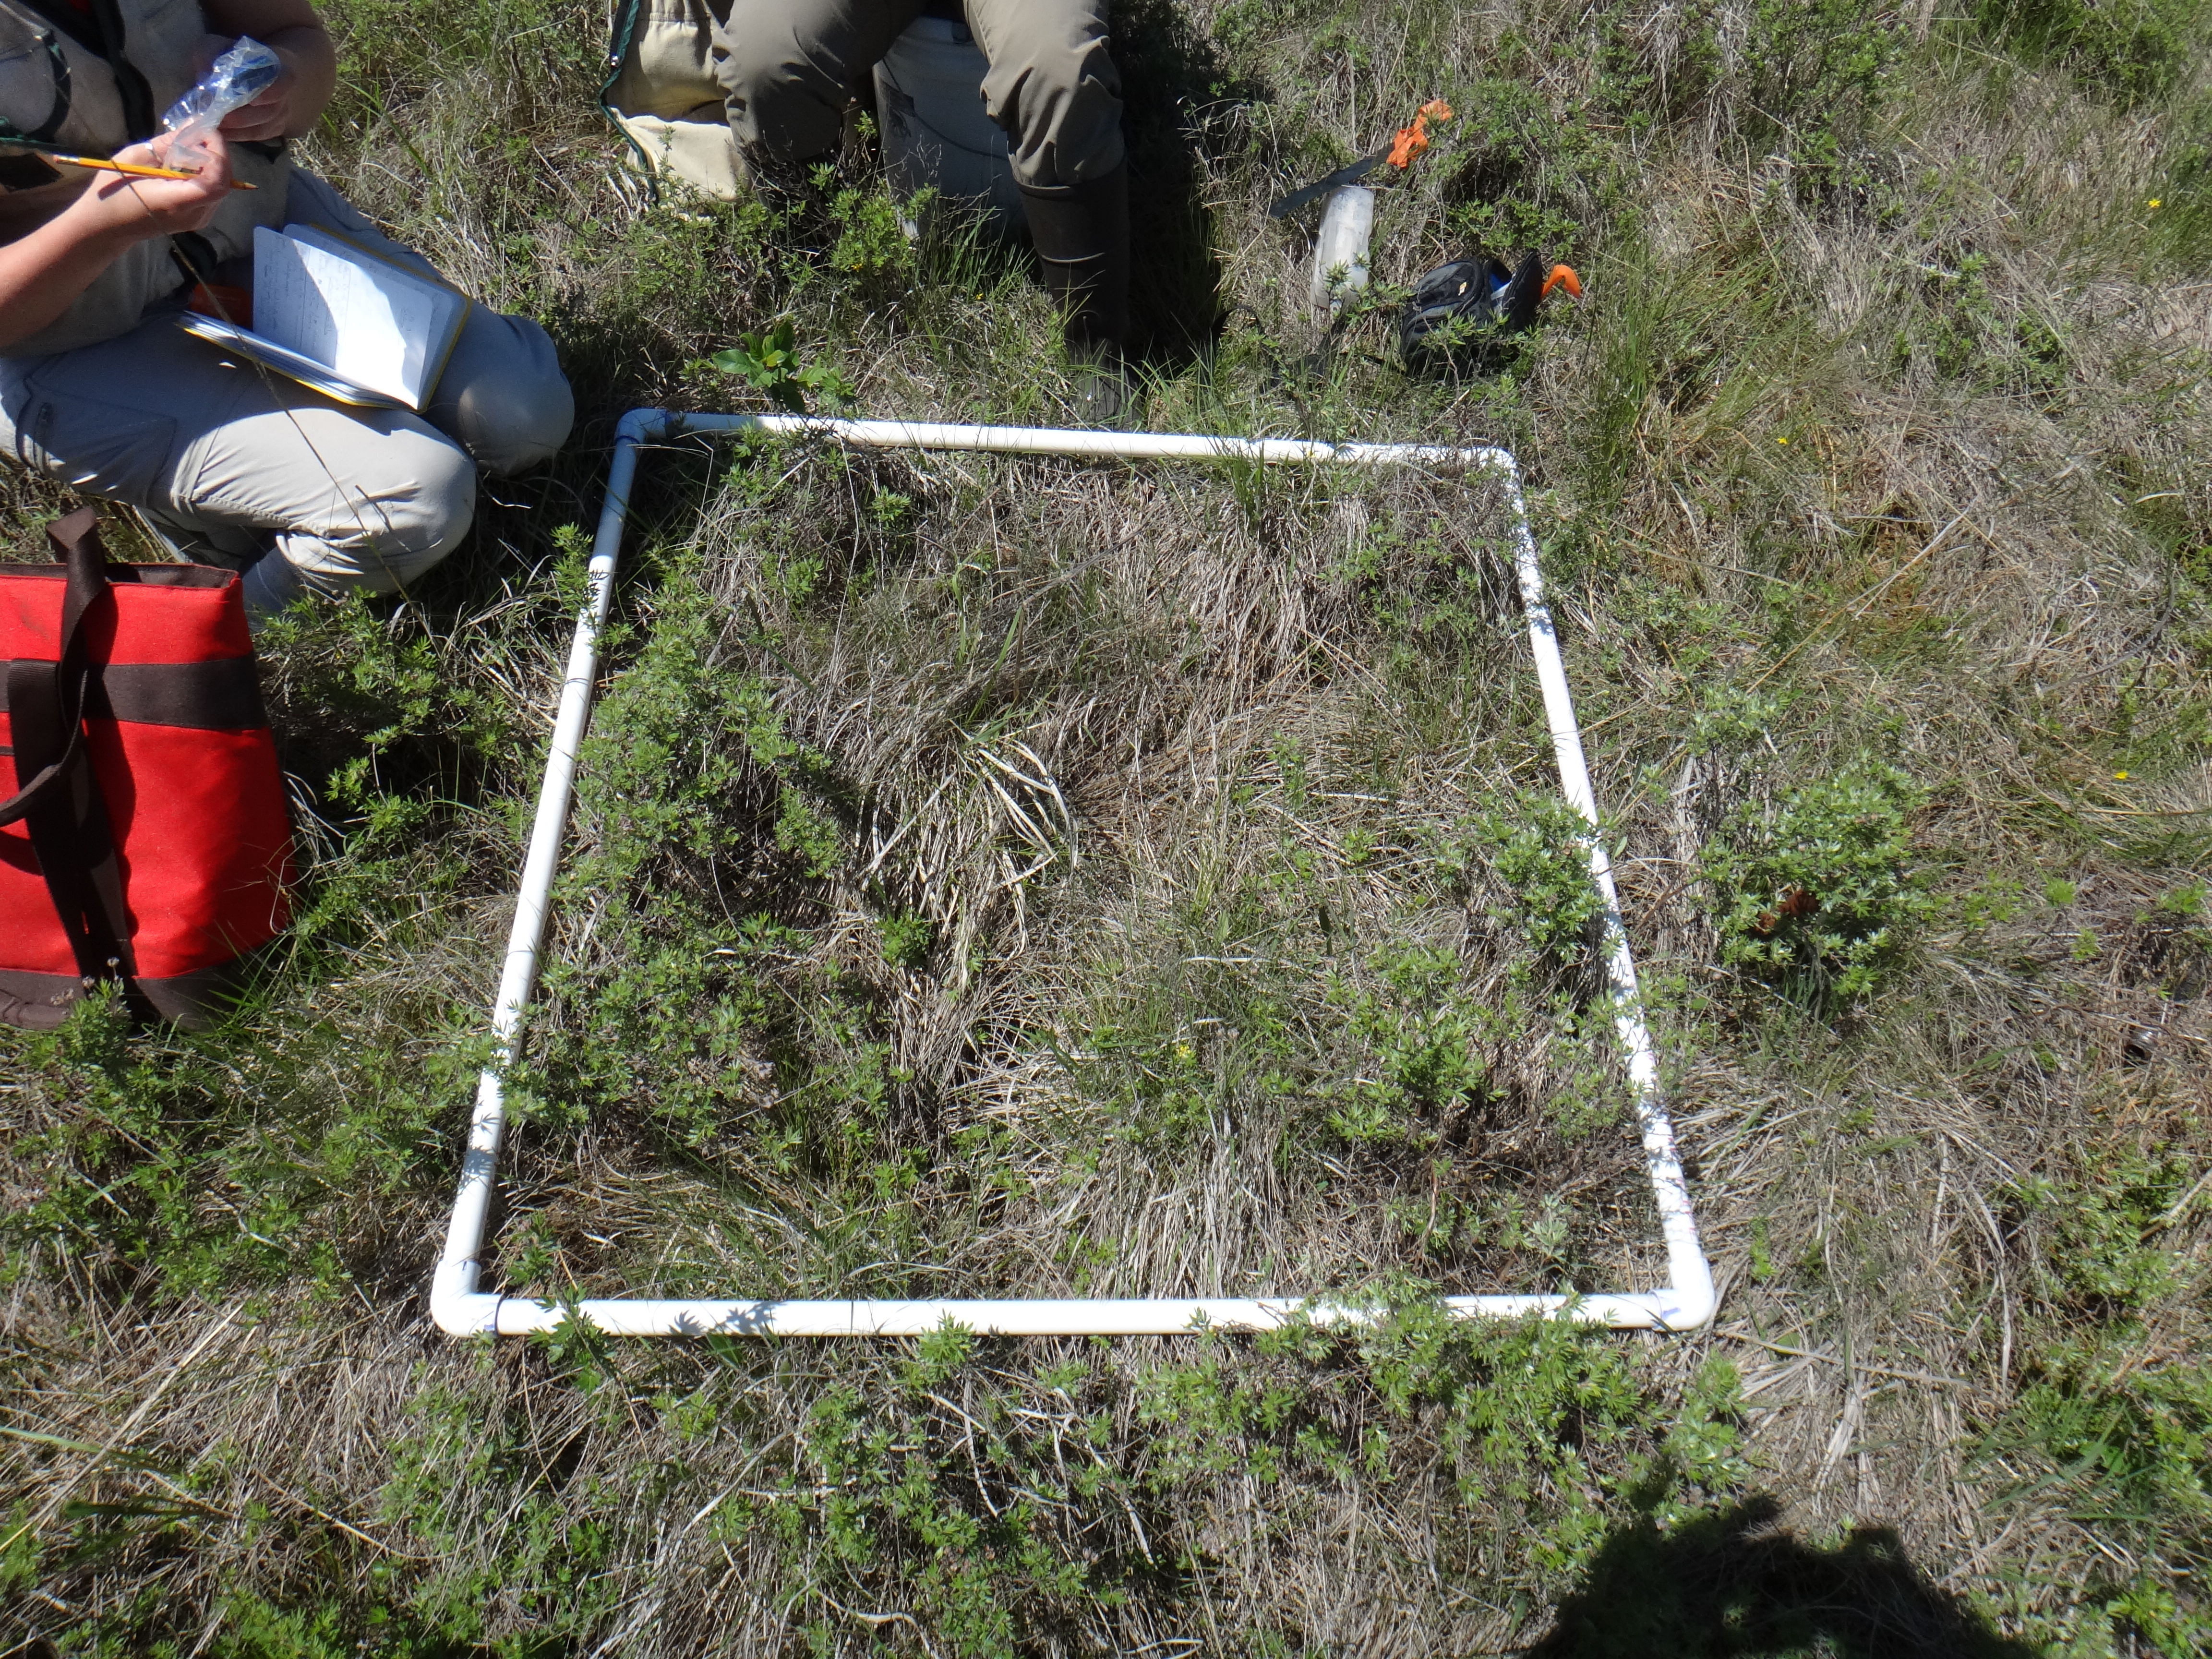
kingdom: Plantae
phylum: Tracheophyta
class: Liliopsida
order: Poales
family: Poaceae
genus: Andropogon
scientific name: Andropogon gerardi
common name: Big bluestem
